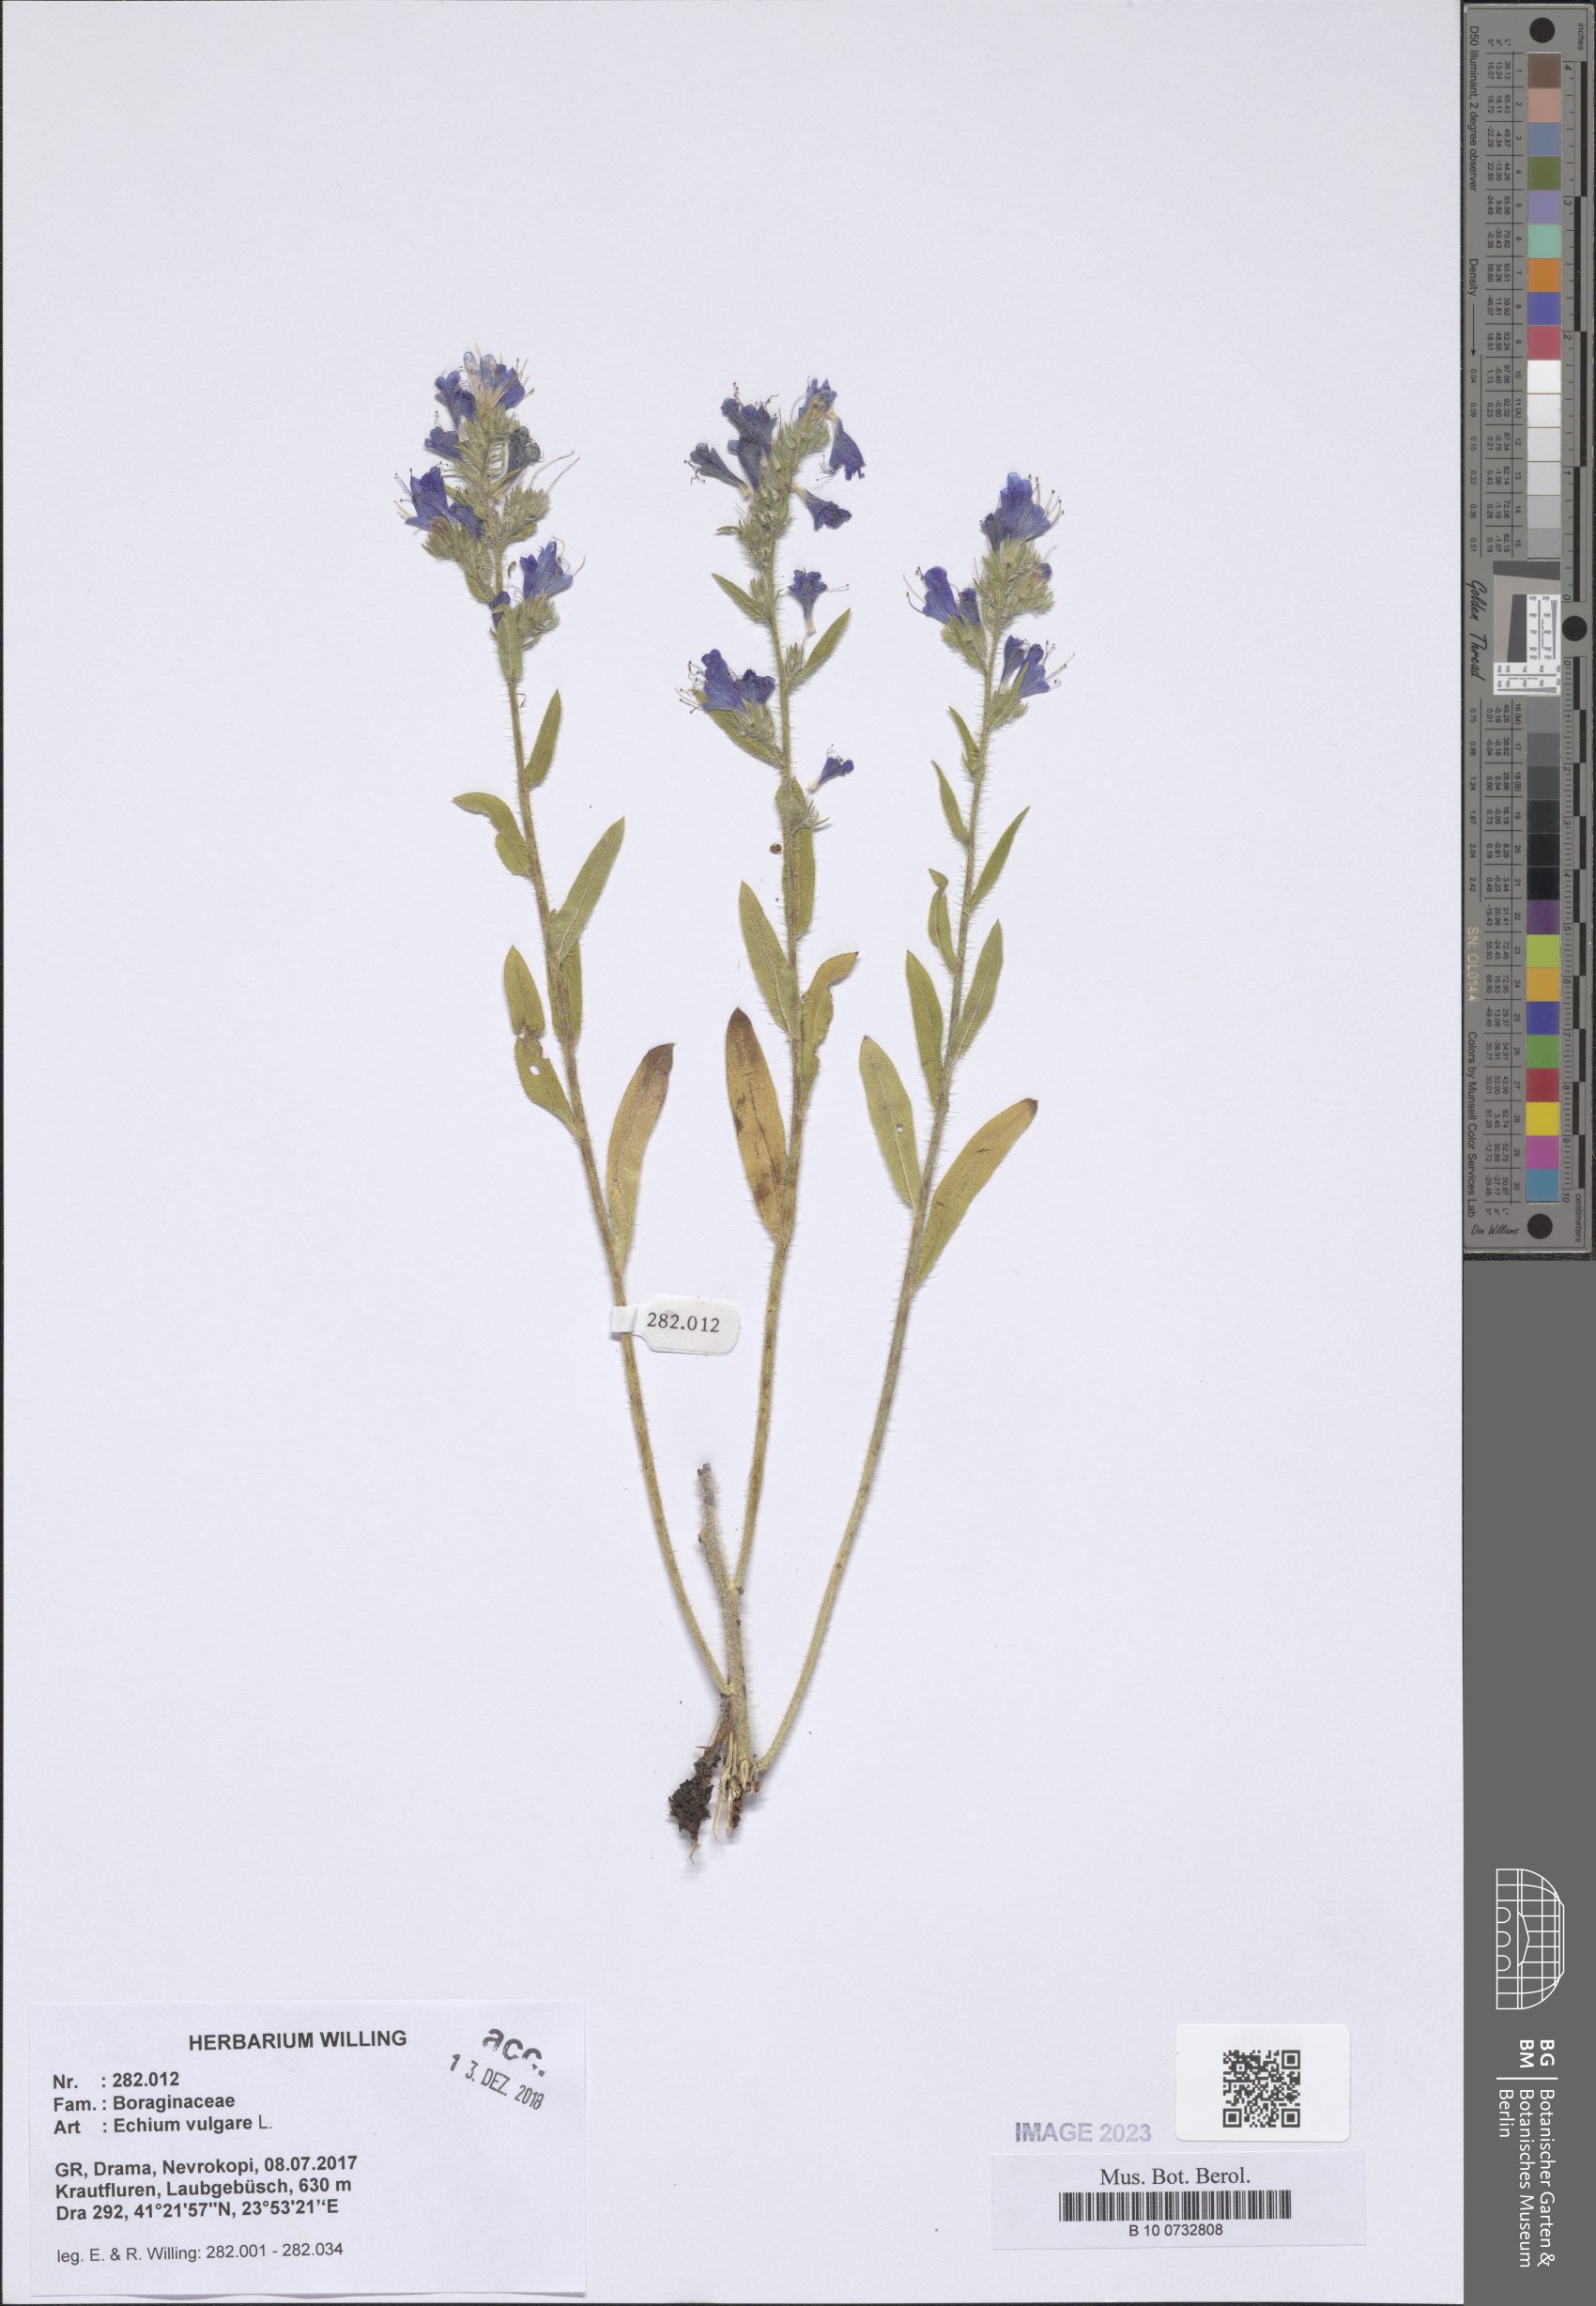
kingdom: Plantae
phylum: Tracheophyta
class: Magnoliopsida
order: Boraginales
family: Boraginaceae
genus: Echium
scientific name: Echium vulgare
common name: Common viper's bugloss
